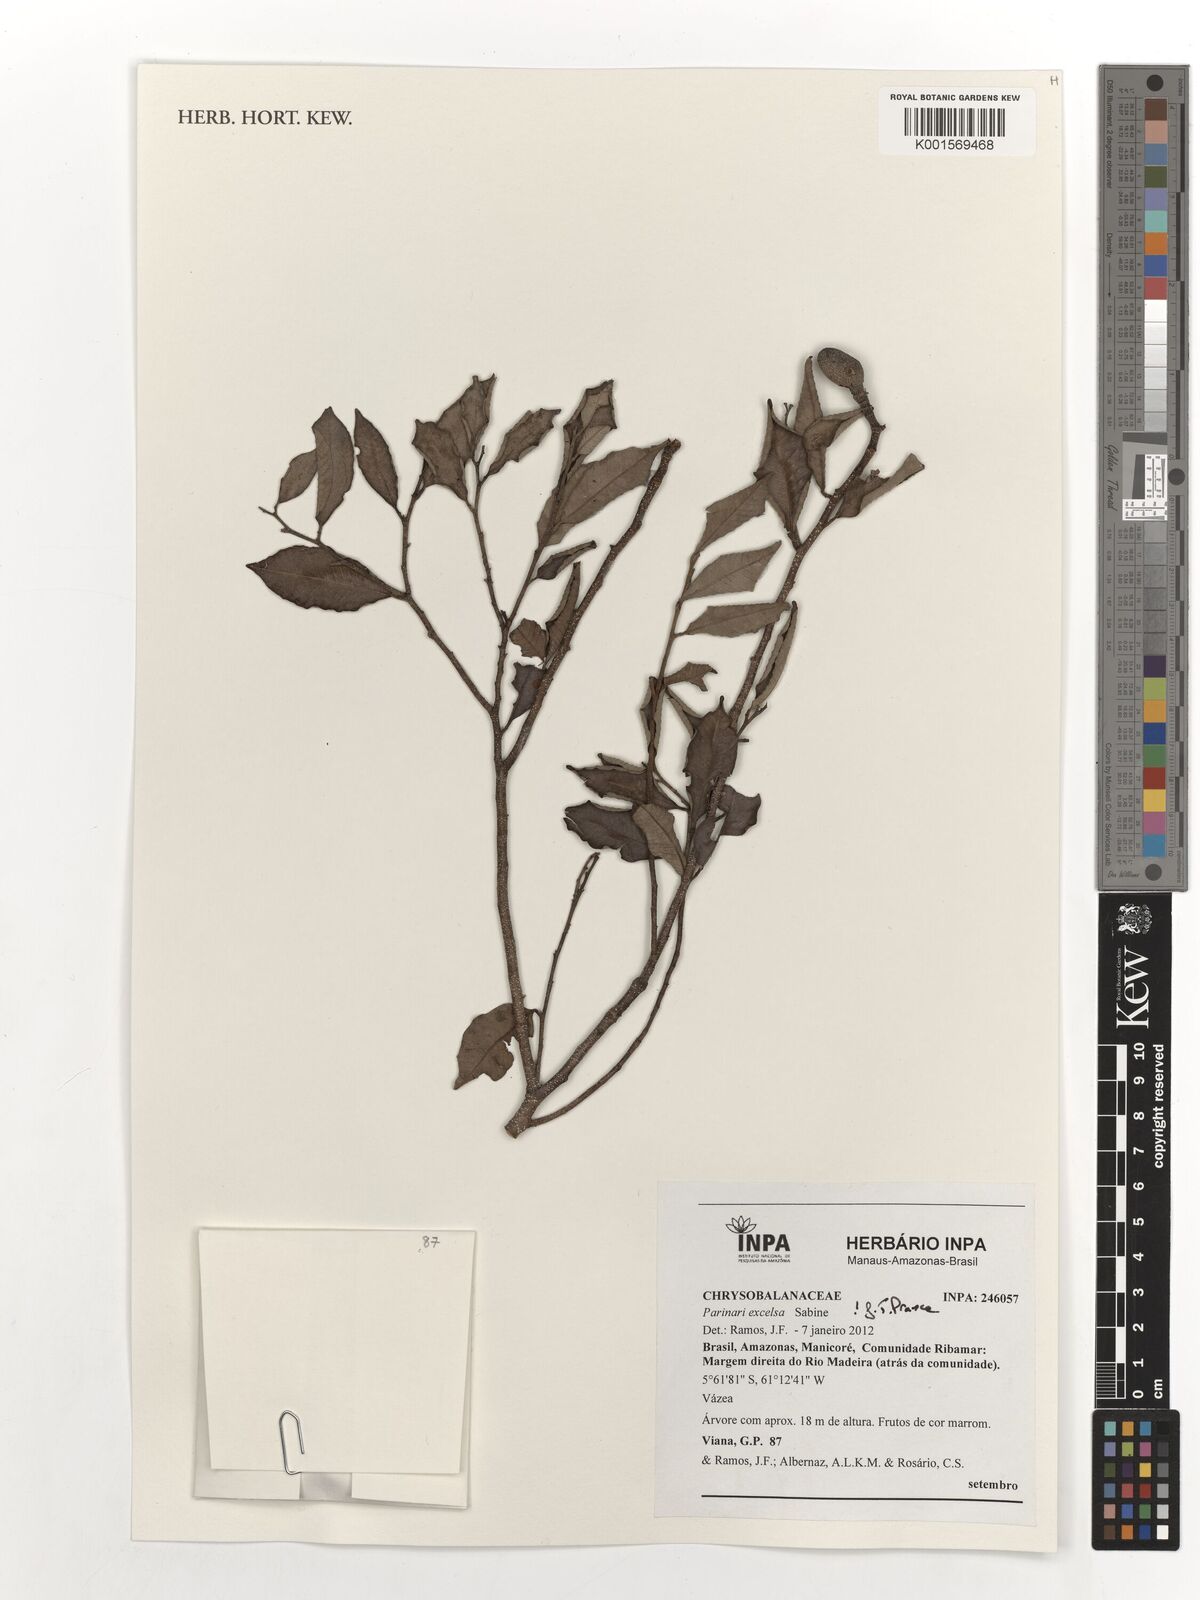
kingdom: Plantae
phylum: Tracheophyta
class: Magnoliopsida
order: Malpighiales
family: Chrysobalanaceae
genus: Parinari
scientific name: Parinari excelsa
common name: Guinea-plum
